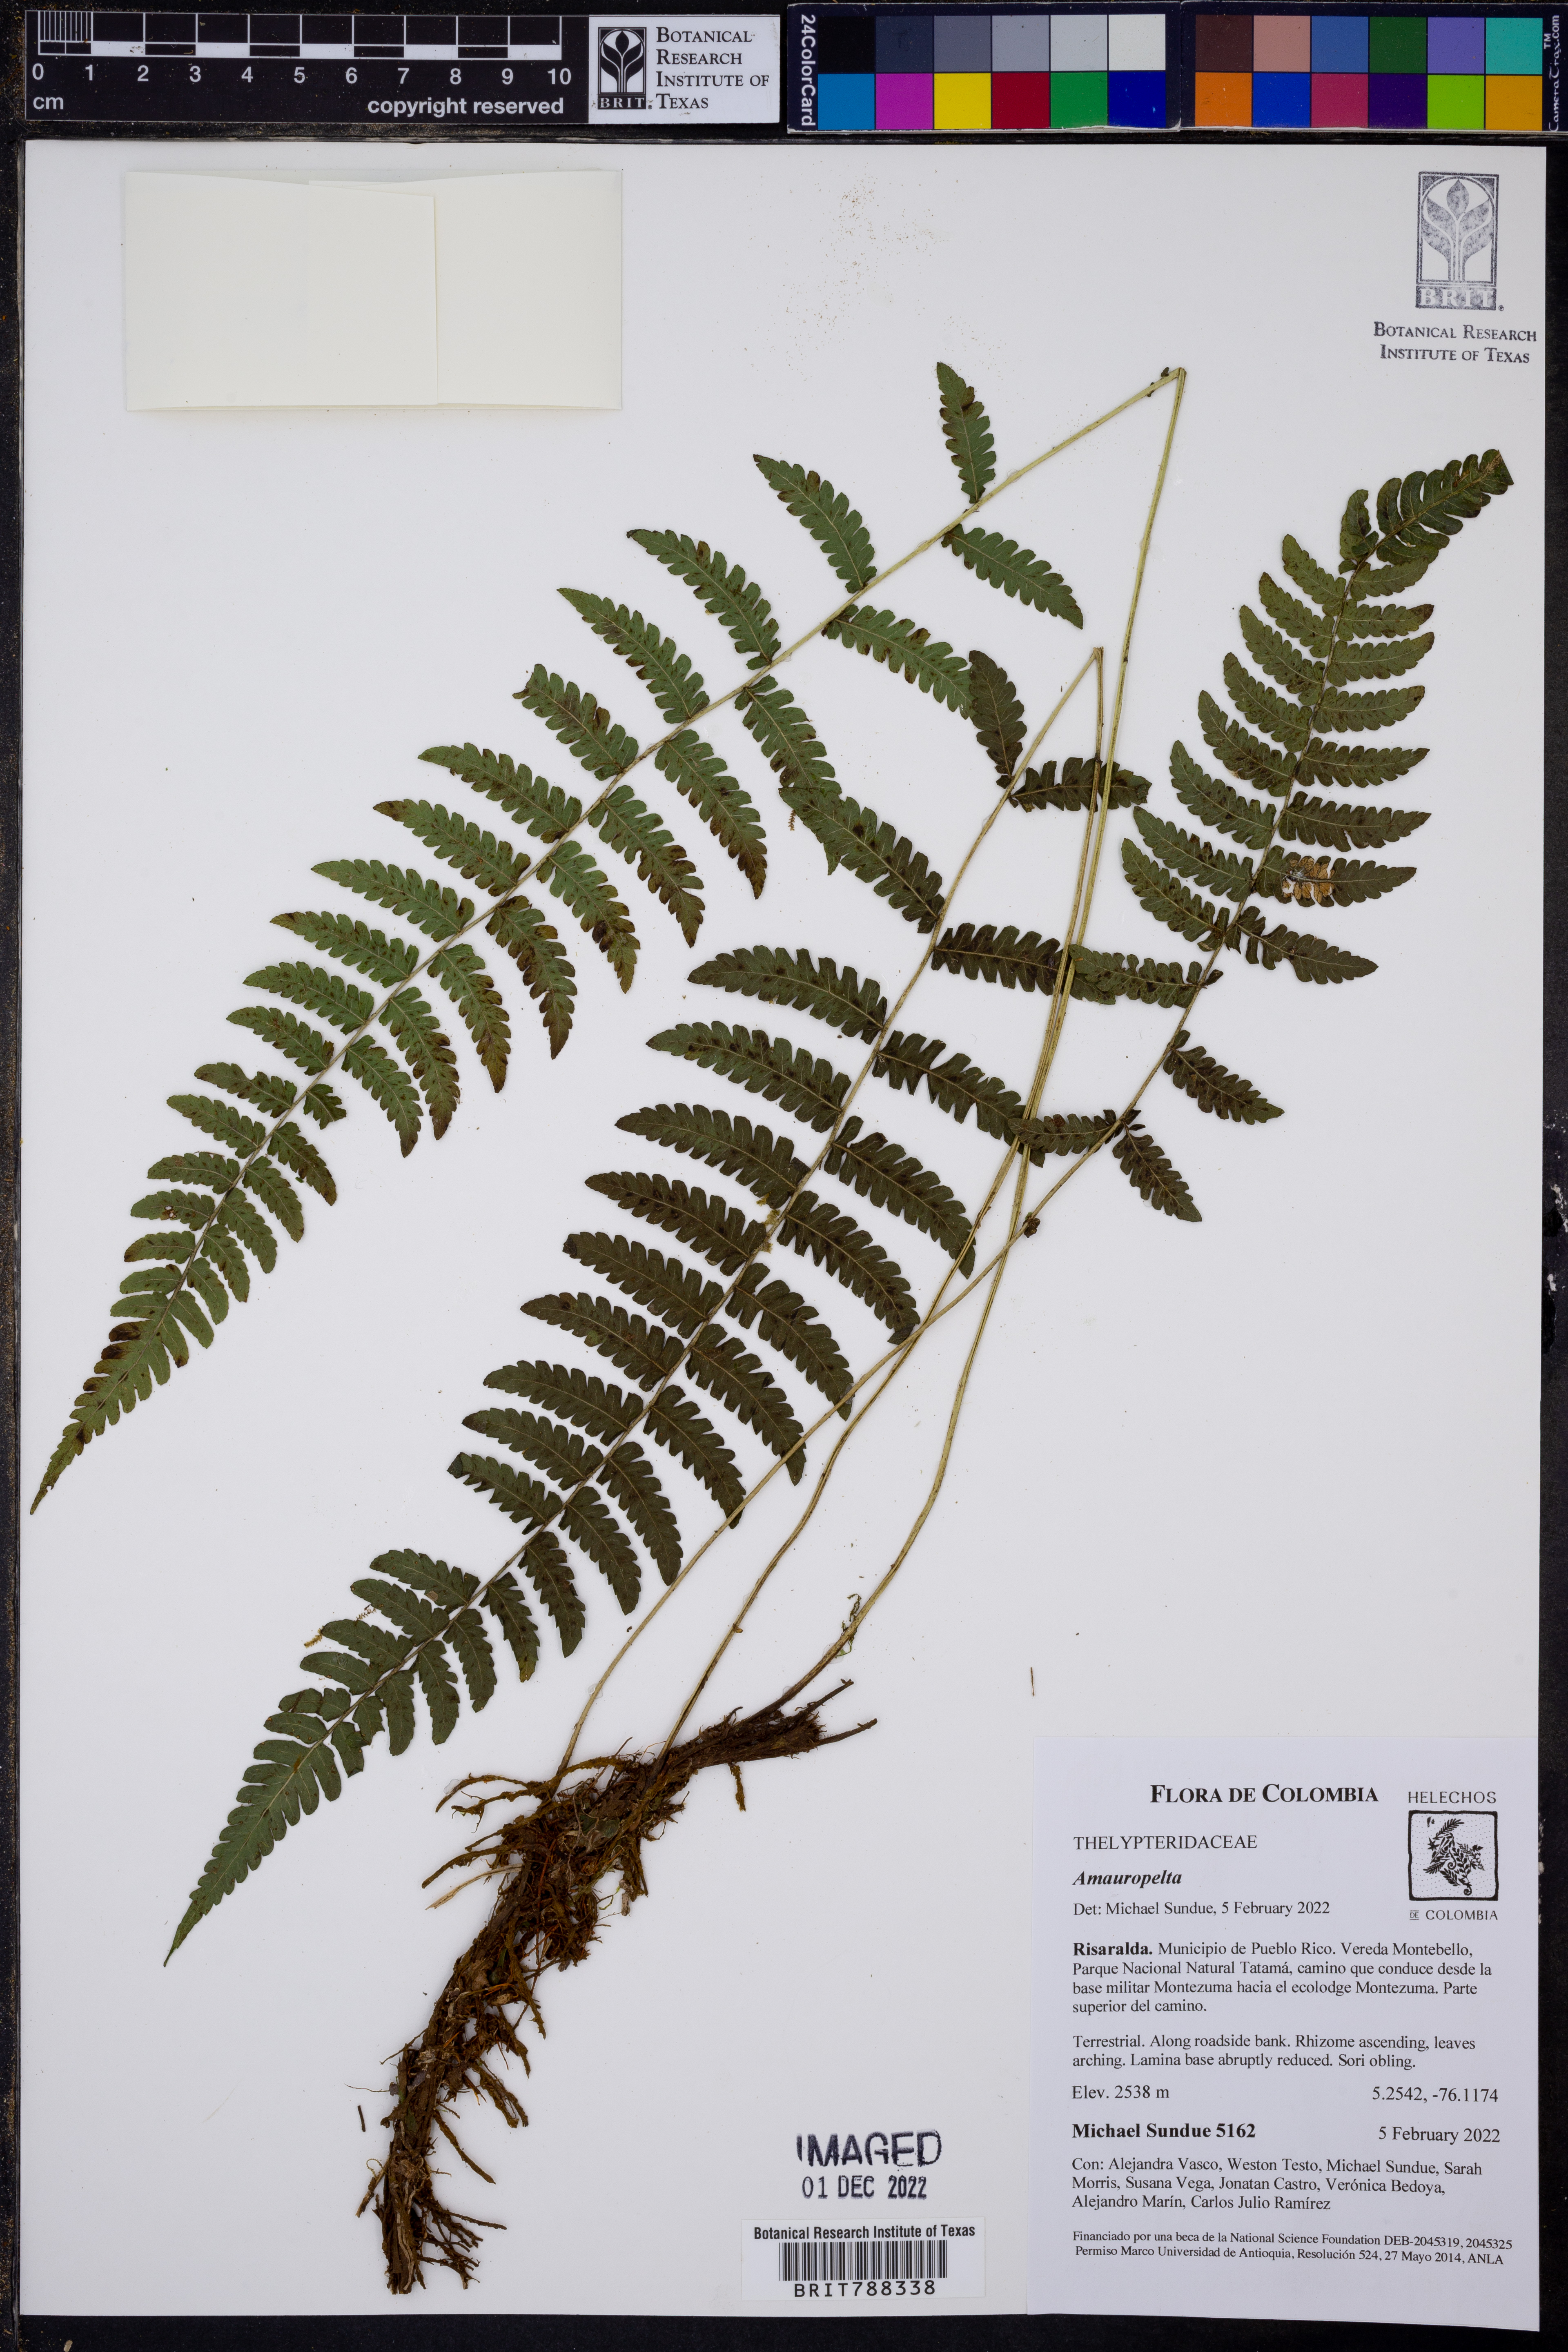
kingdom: Plantae
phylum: Tracheophyta
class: Polypodiopsida
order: Polypodiales
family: Thelypteridaceae
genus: Amauropelta
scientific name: Amauropelta
